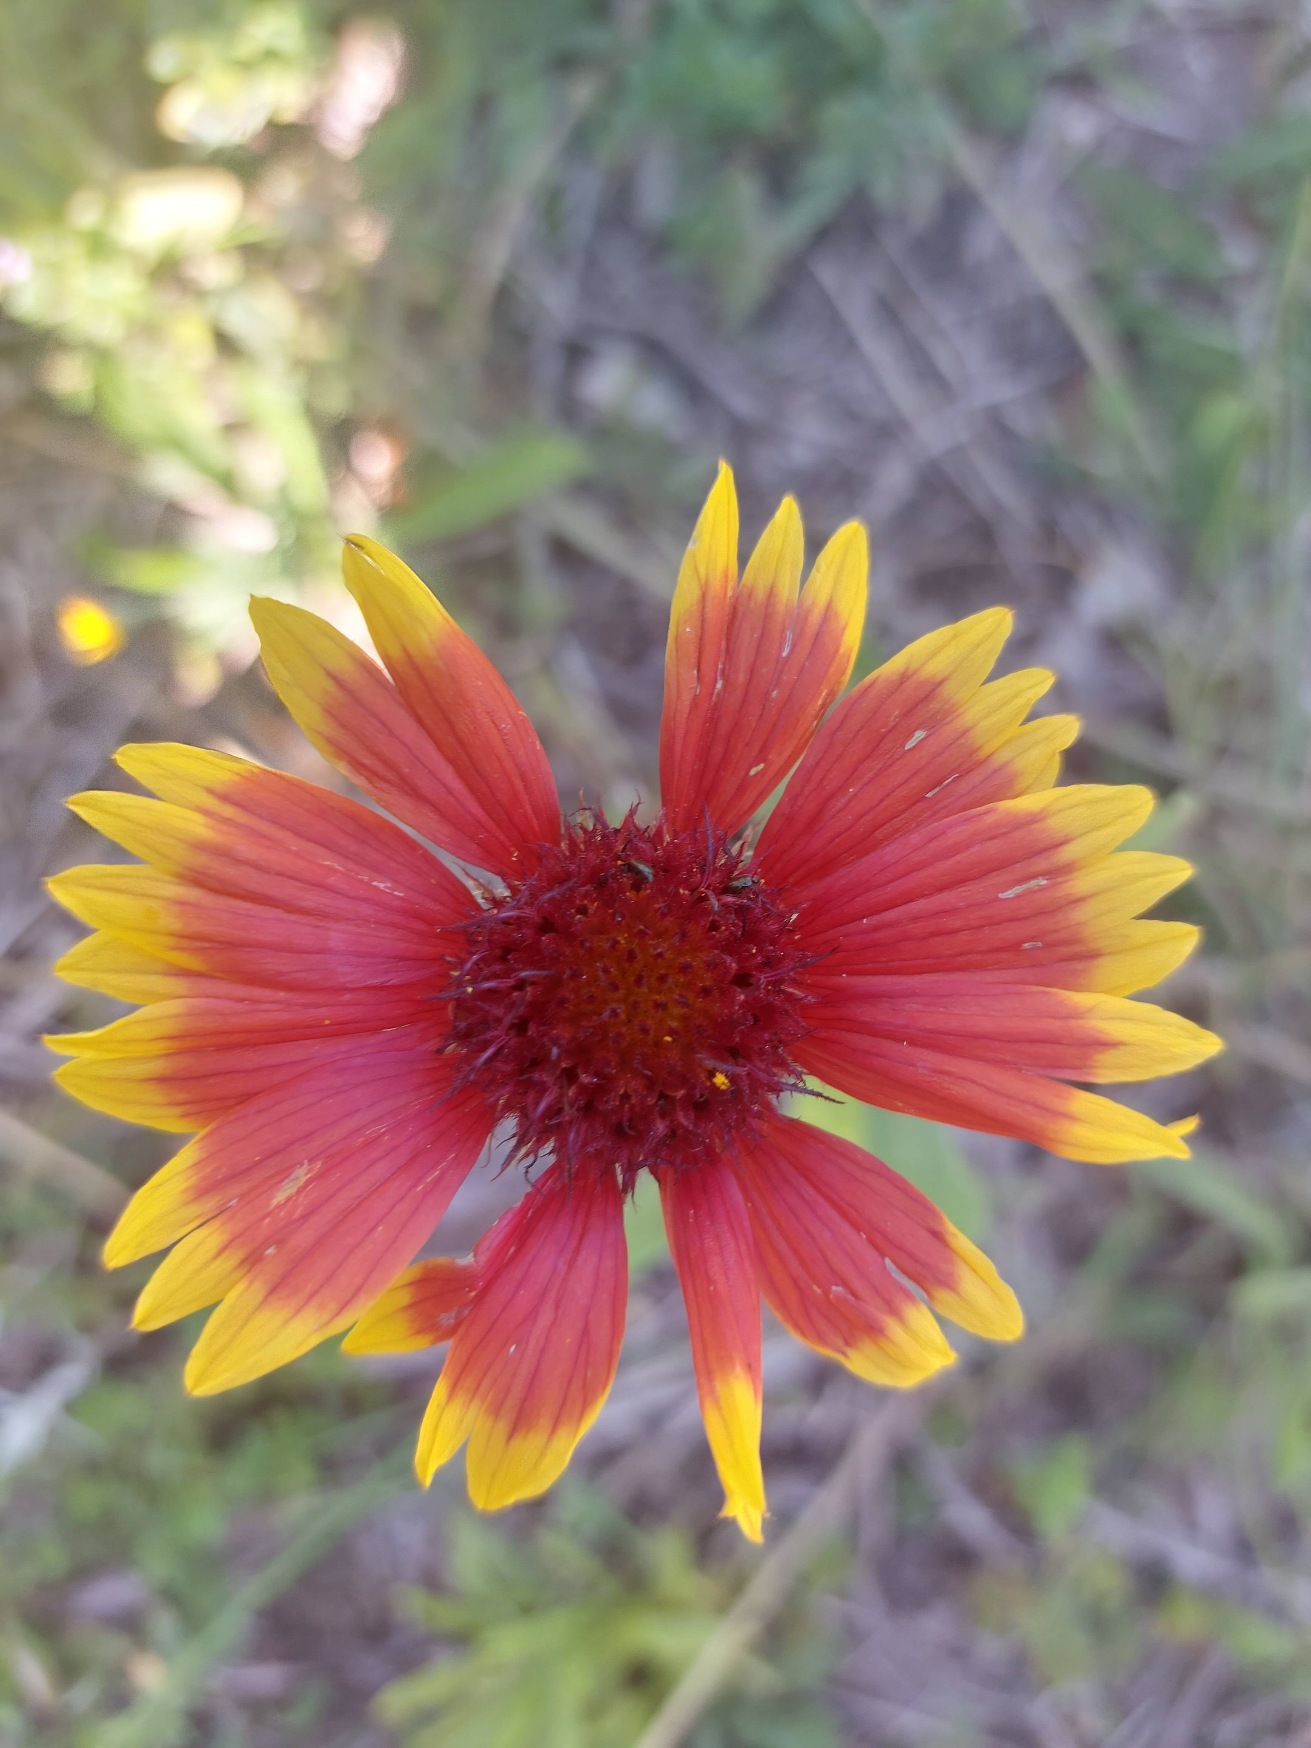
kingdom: Plantae
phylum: Tracheophyta
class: Magnoliopsida
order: Asterales
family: Asteraceae
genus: Gaillardia
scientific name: Gaillardia
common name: Kokardeslægten
